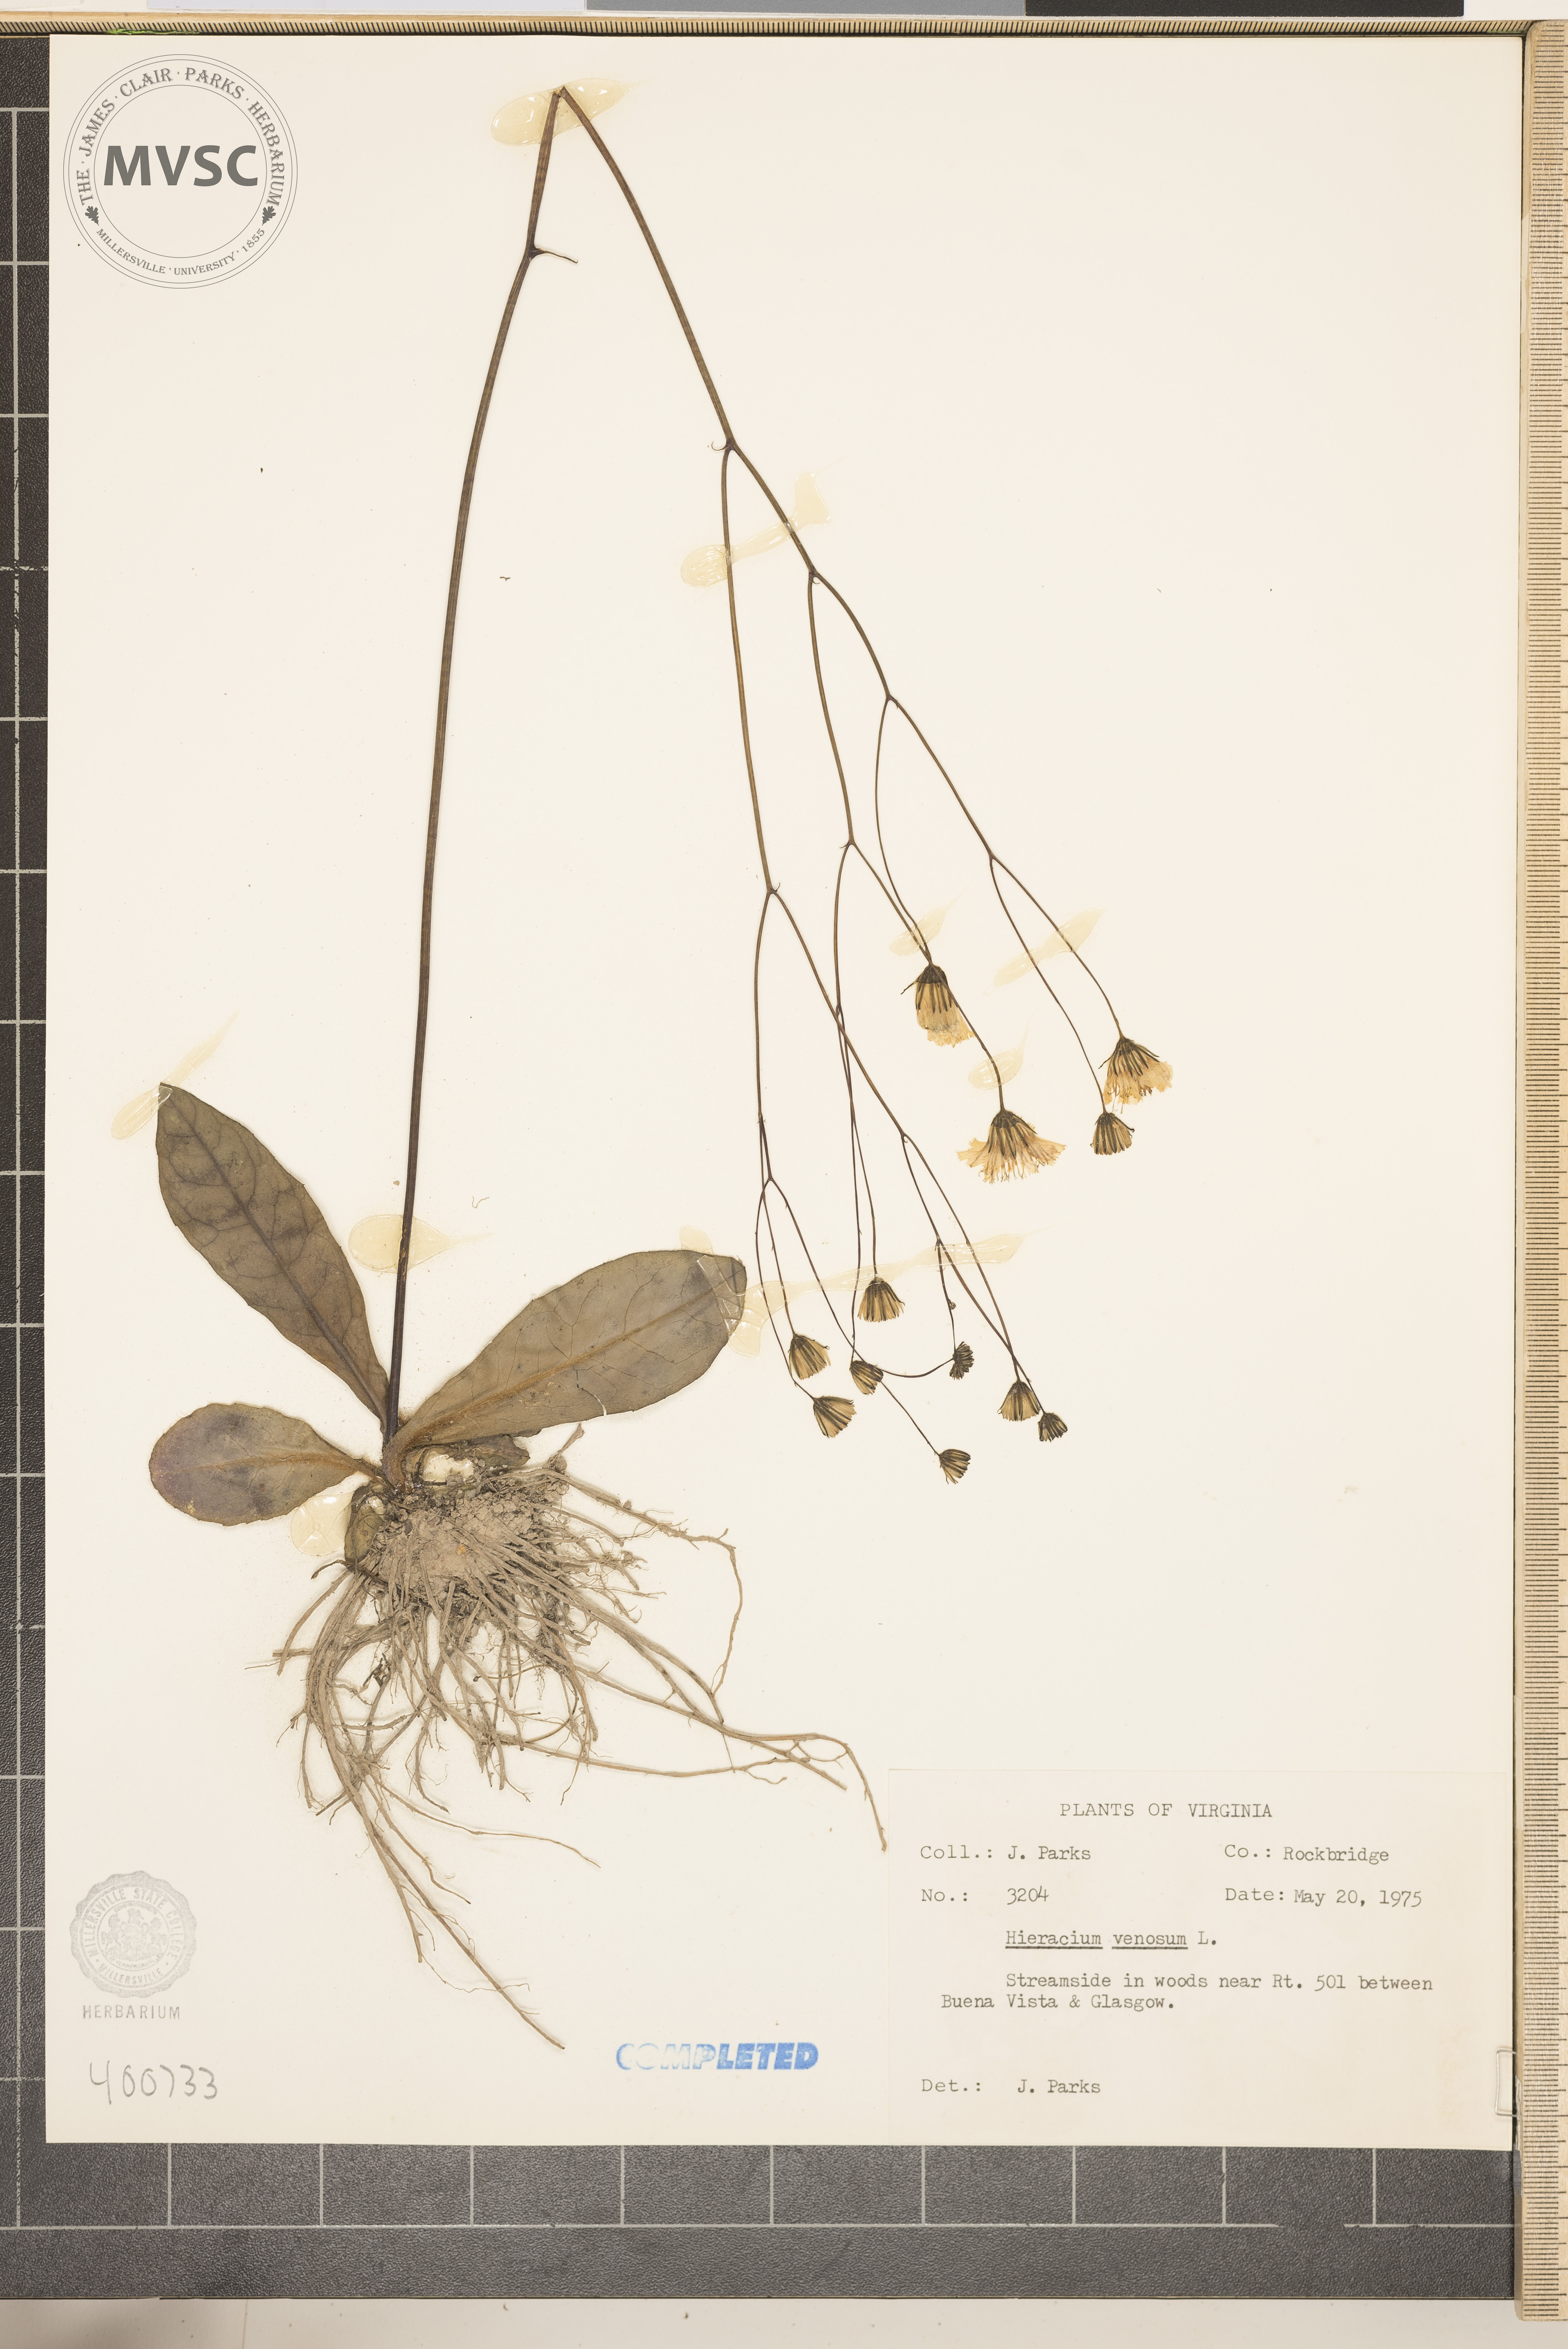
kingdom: Plantae
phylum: Tracheophyta
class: Magnoliopsida
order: Asterales
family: Asteraceae
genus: Hieracium
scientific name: Hieracium venosum
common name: Rattlesnake hawkweed
